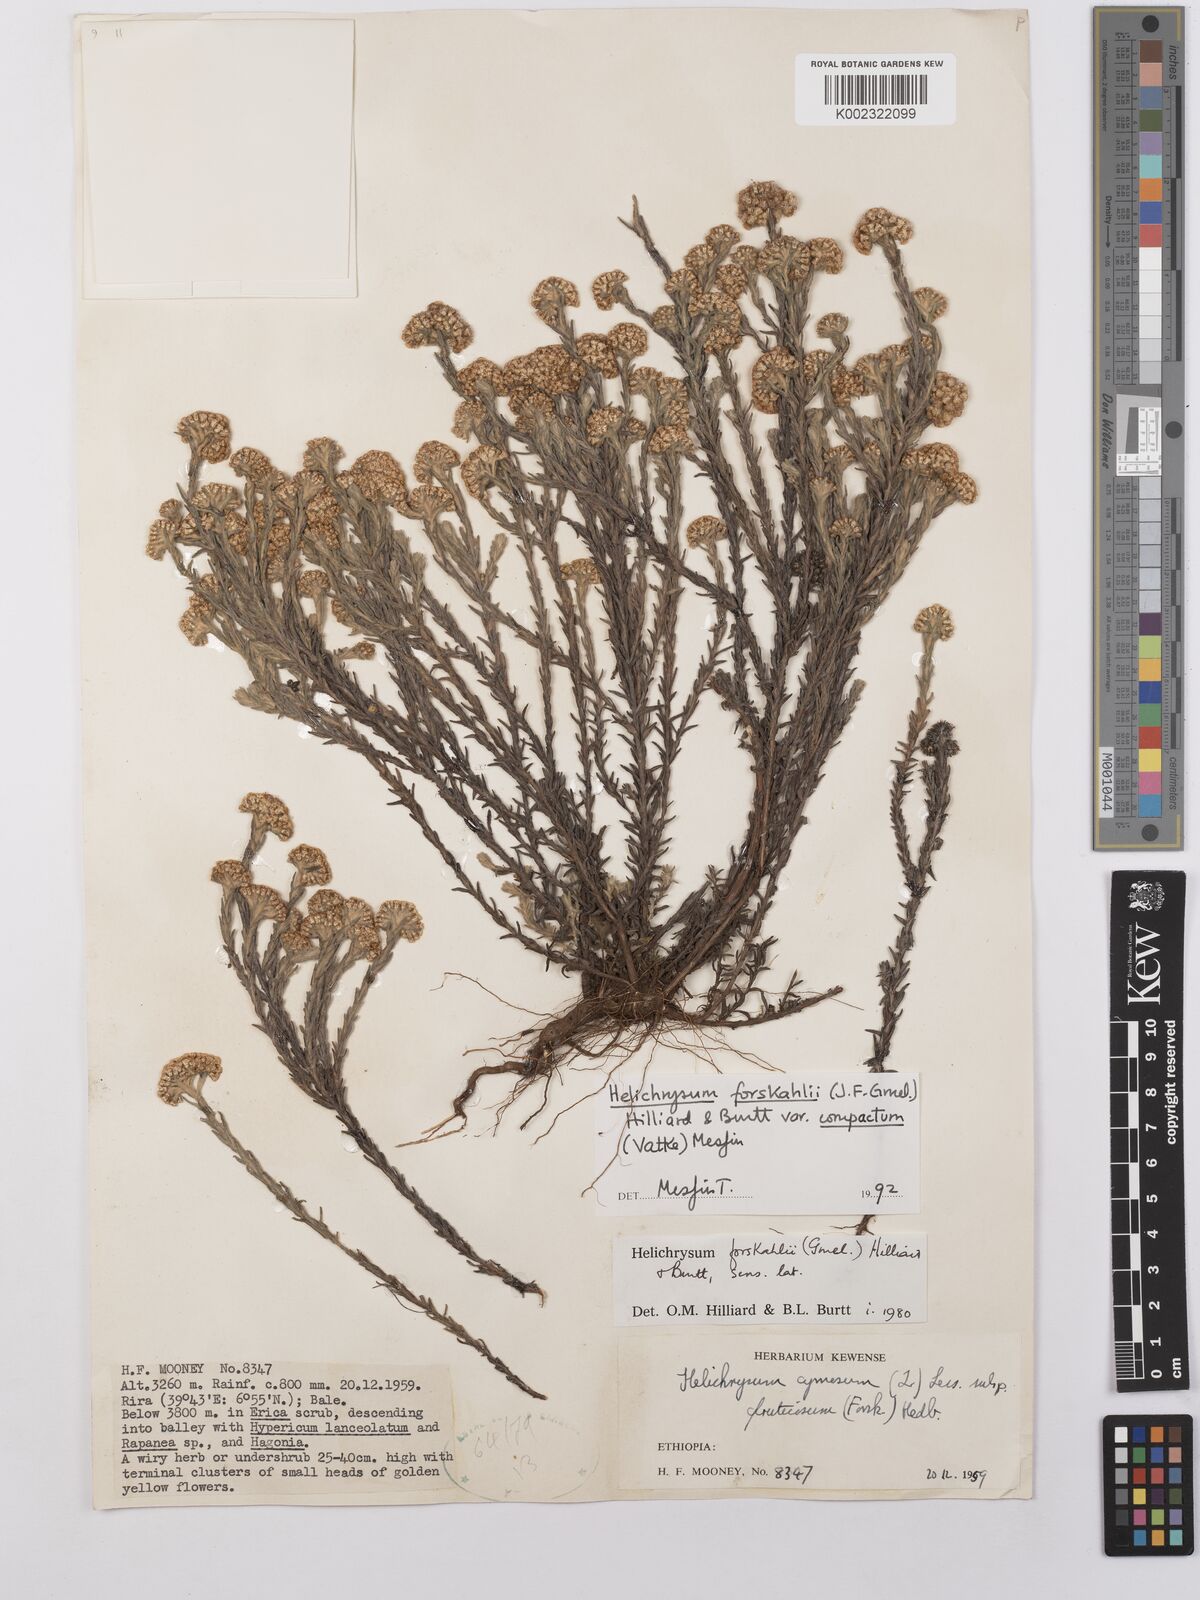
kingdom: Plantae
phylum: Tracheophyta
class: Magnoliopsida
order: Asterales
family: Asteraceae
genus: Helichrysum
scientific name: Helichrysum forskahlii
